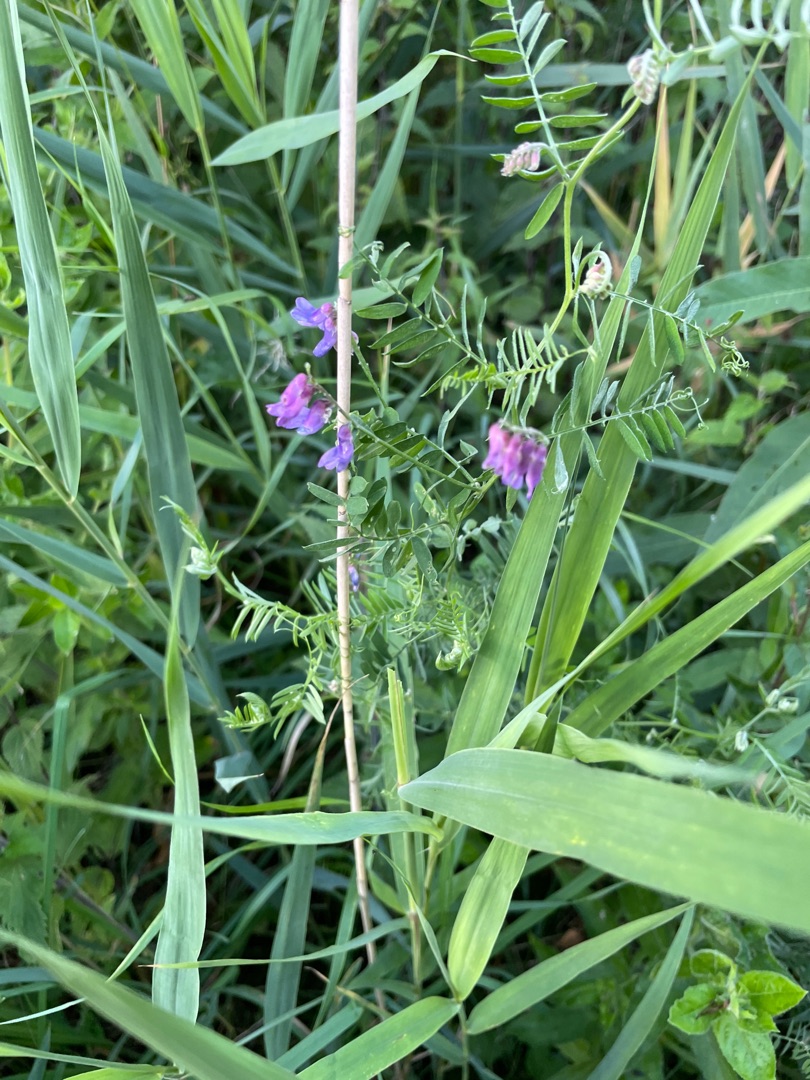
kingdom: Plantae
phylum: Tracheophyta
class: Magnoliopsida
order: Fabales
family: Fabaceae
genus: Vicia
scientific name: Vicia cracca
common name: Muse-vikke
